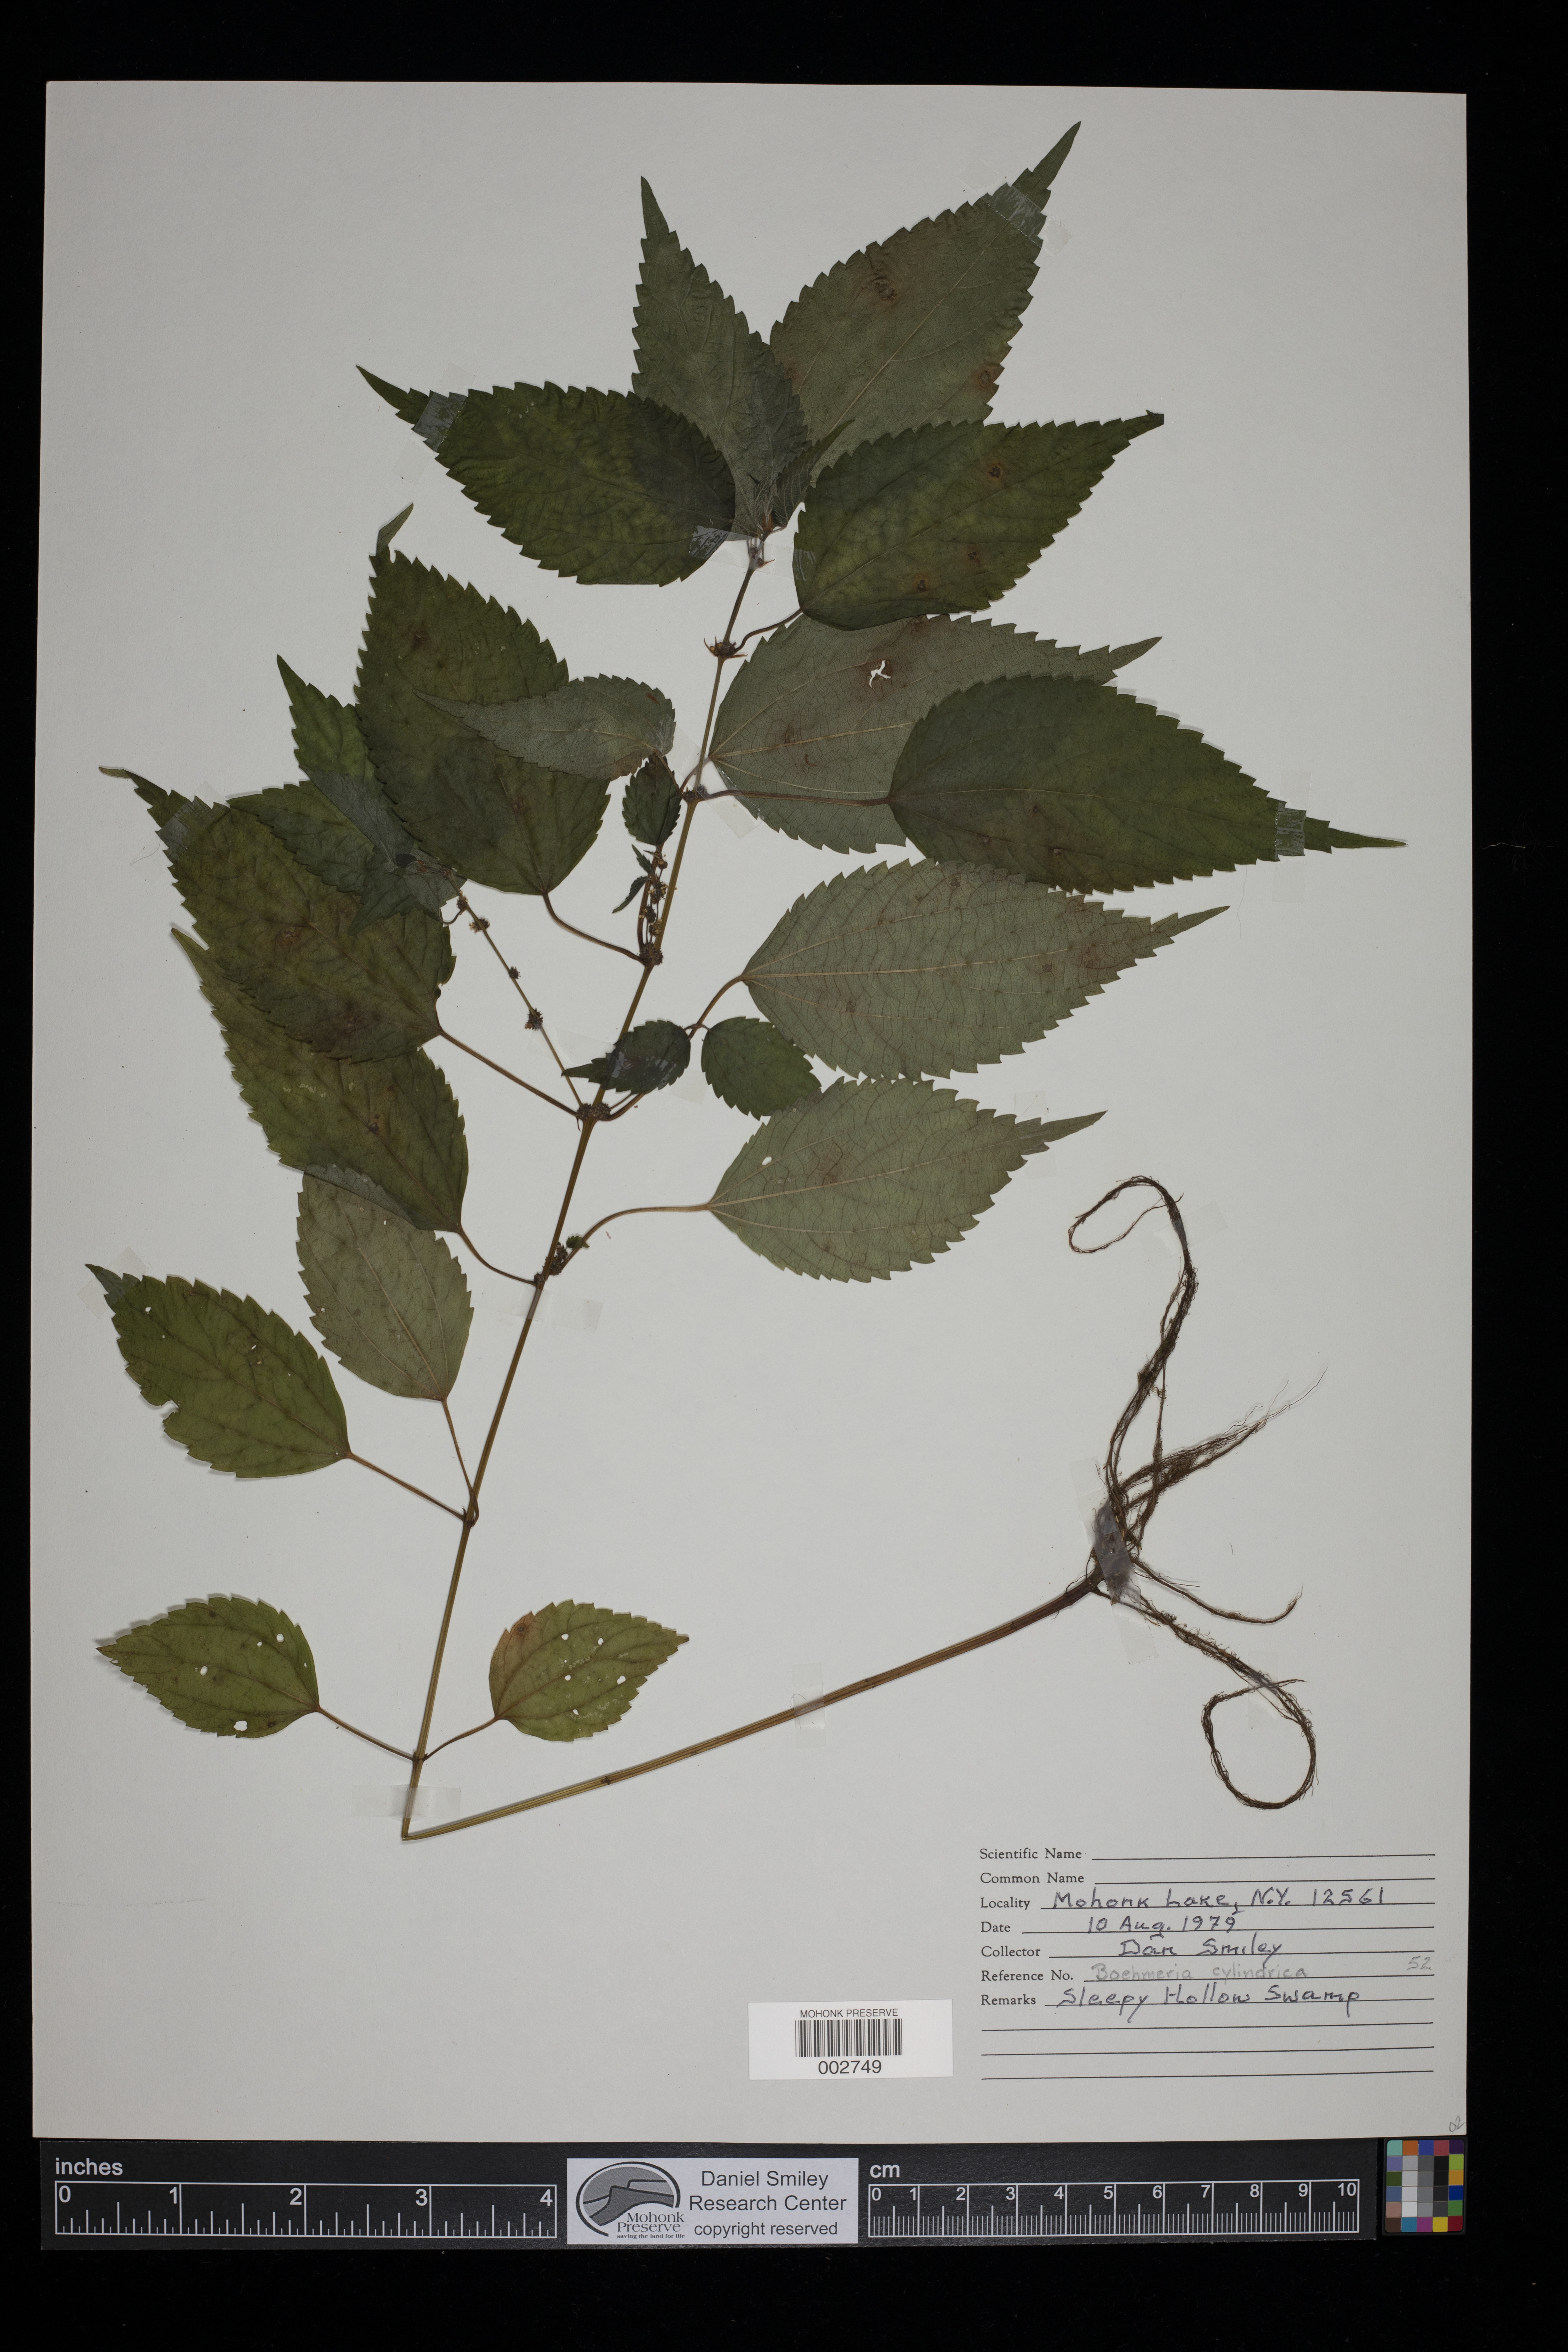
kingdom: Plantae
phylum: Tracheophyta
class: Magnoliopsida
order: Rosales
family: Urticaceae
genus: Boehmeria
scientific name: Boehmeria cylindrica
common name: Bog-hemp
